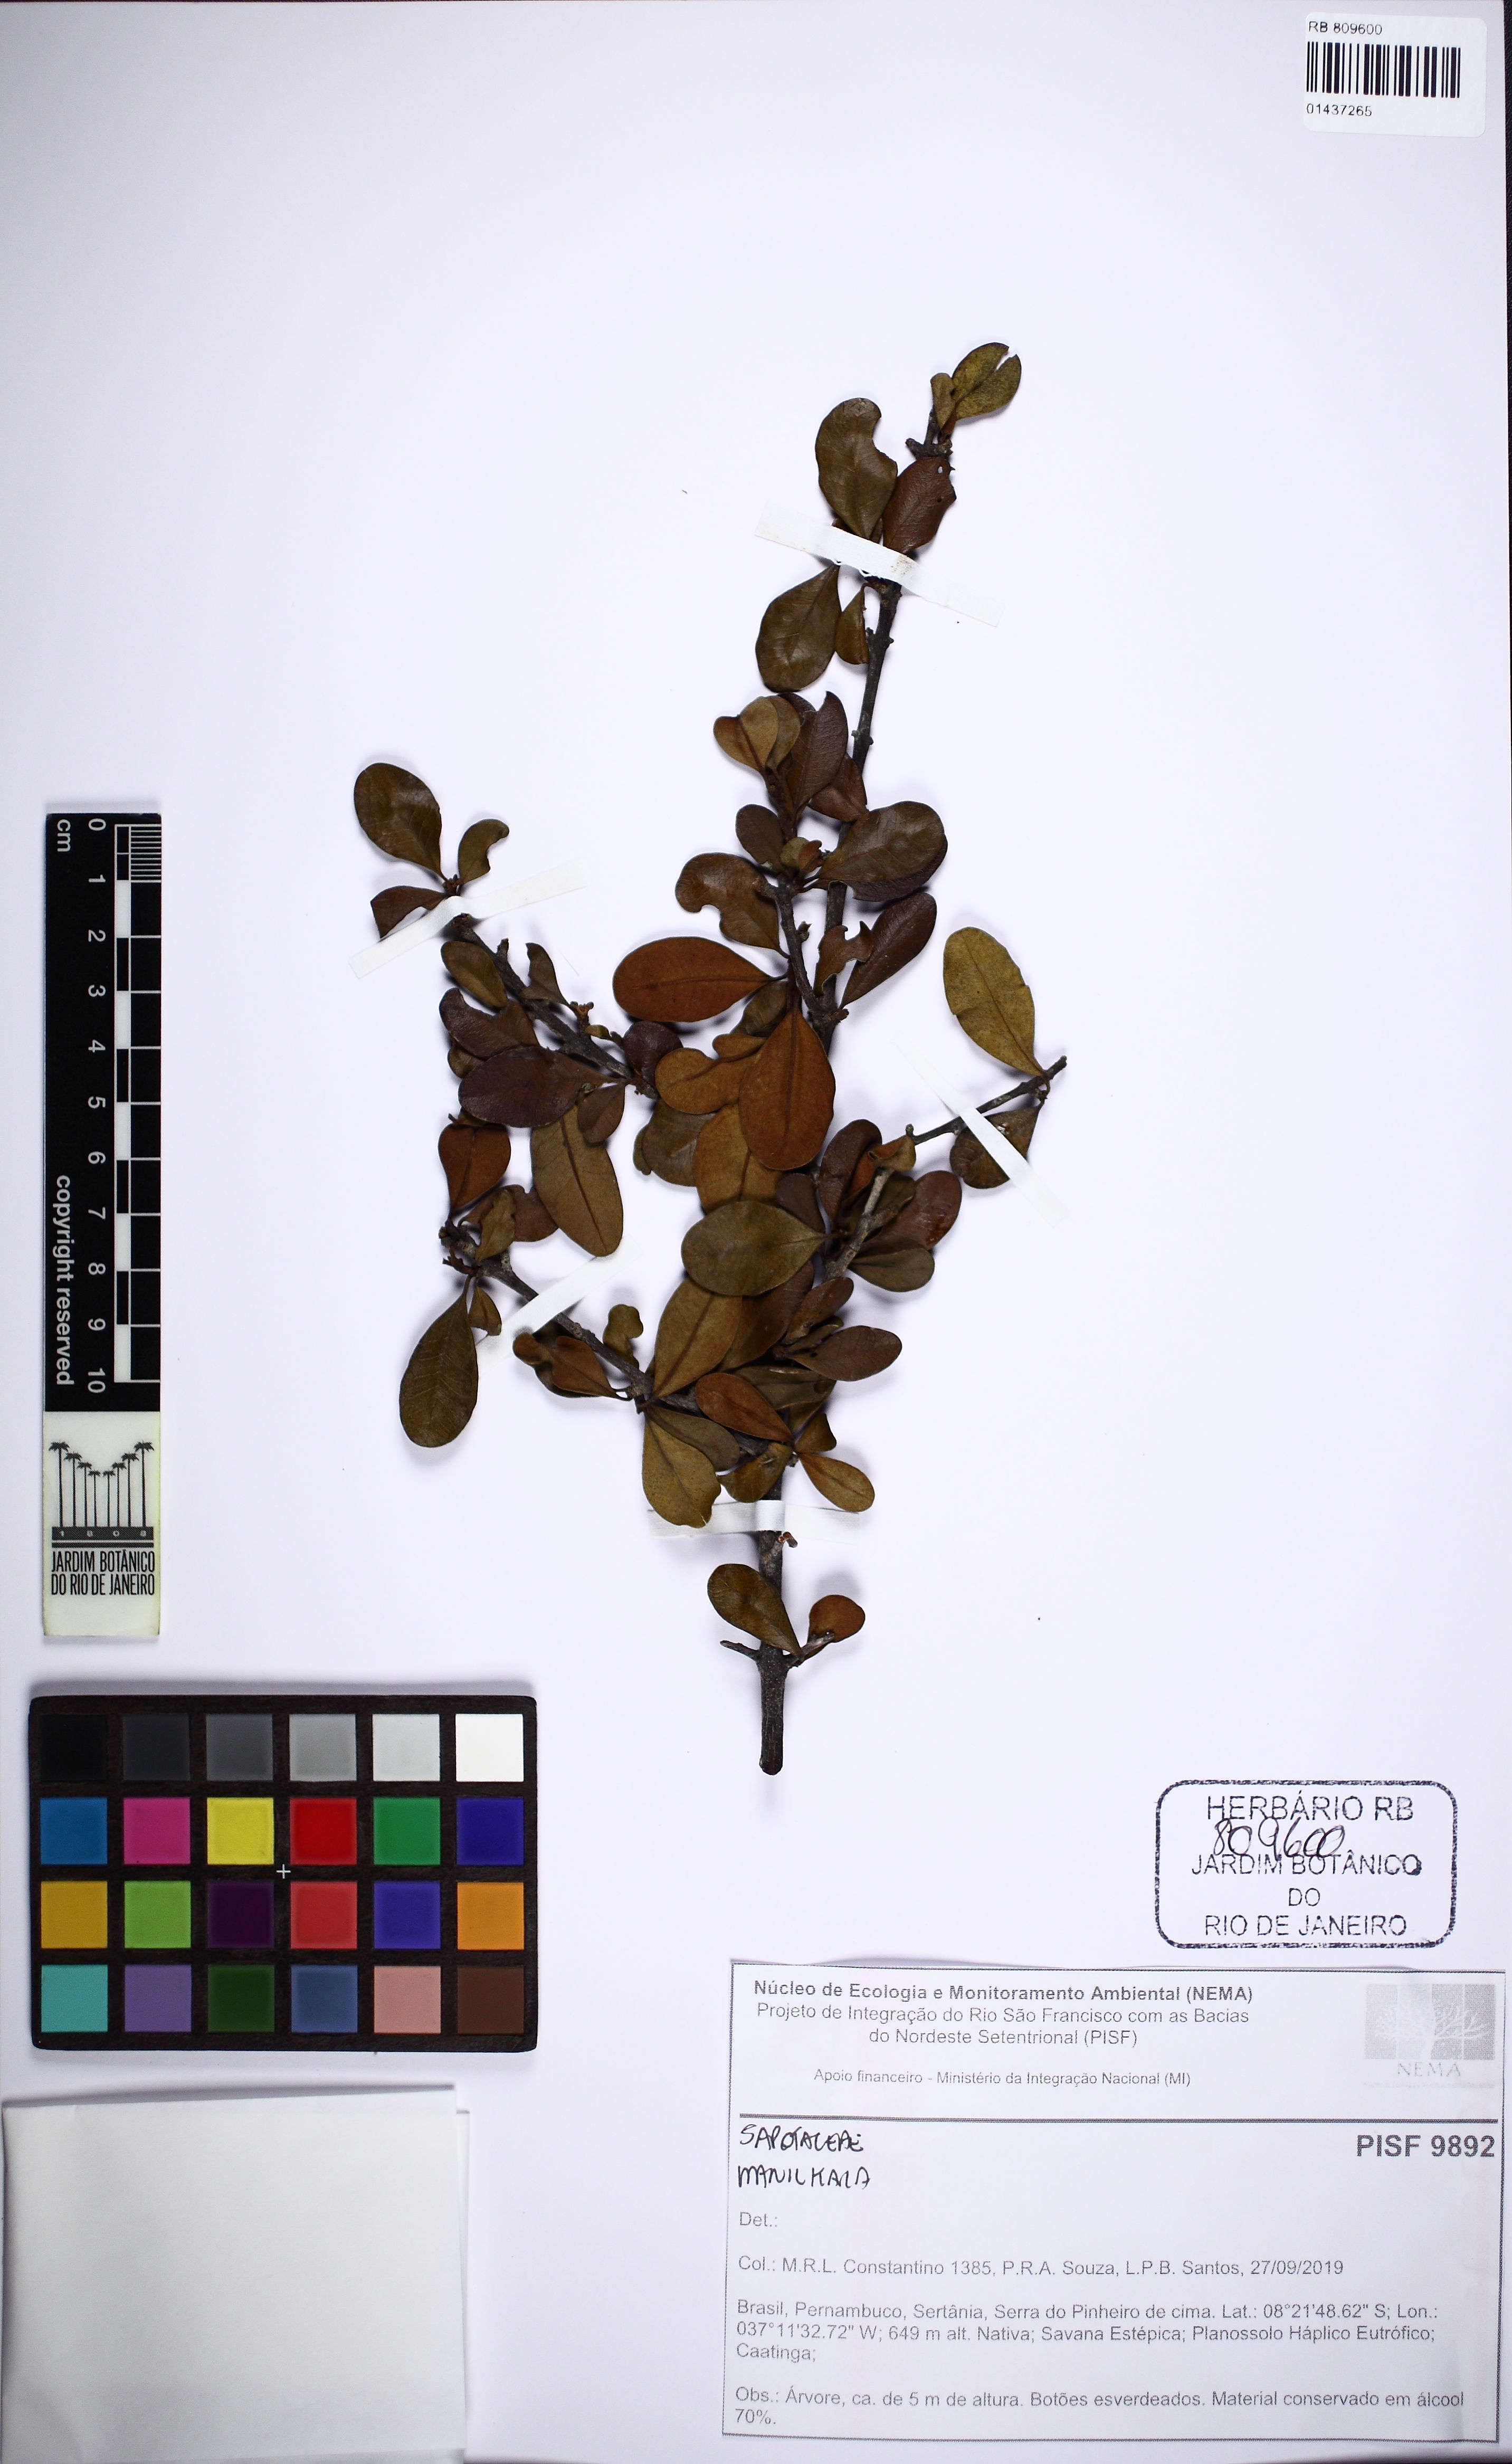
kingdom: Plantae
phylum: Tracheophyta
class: Magnoliopsida
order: Ericales
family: Sapotaceae
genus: Manilkara
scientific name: Manilkara
